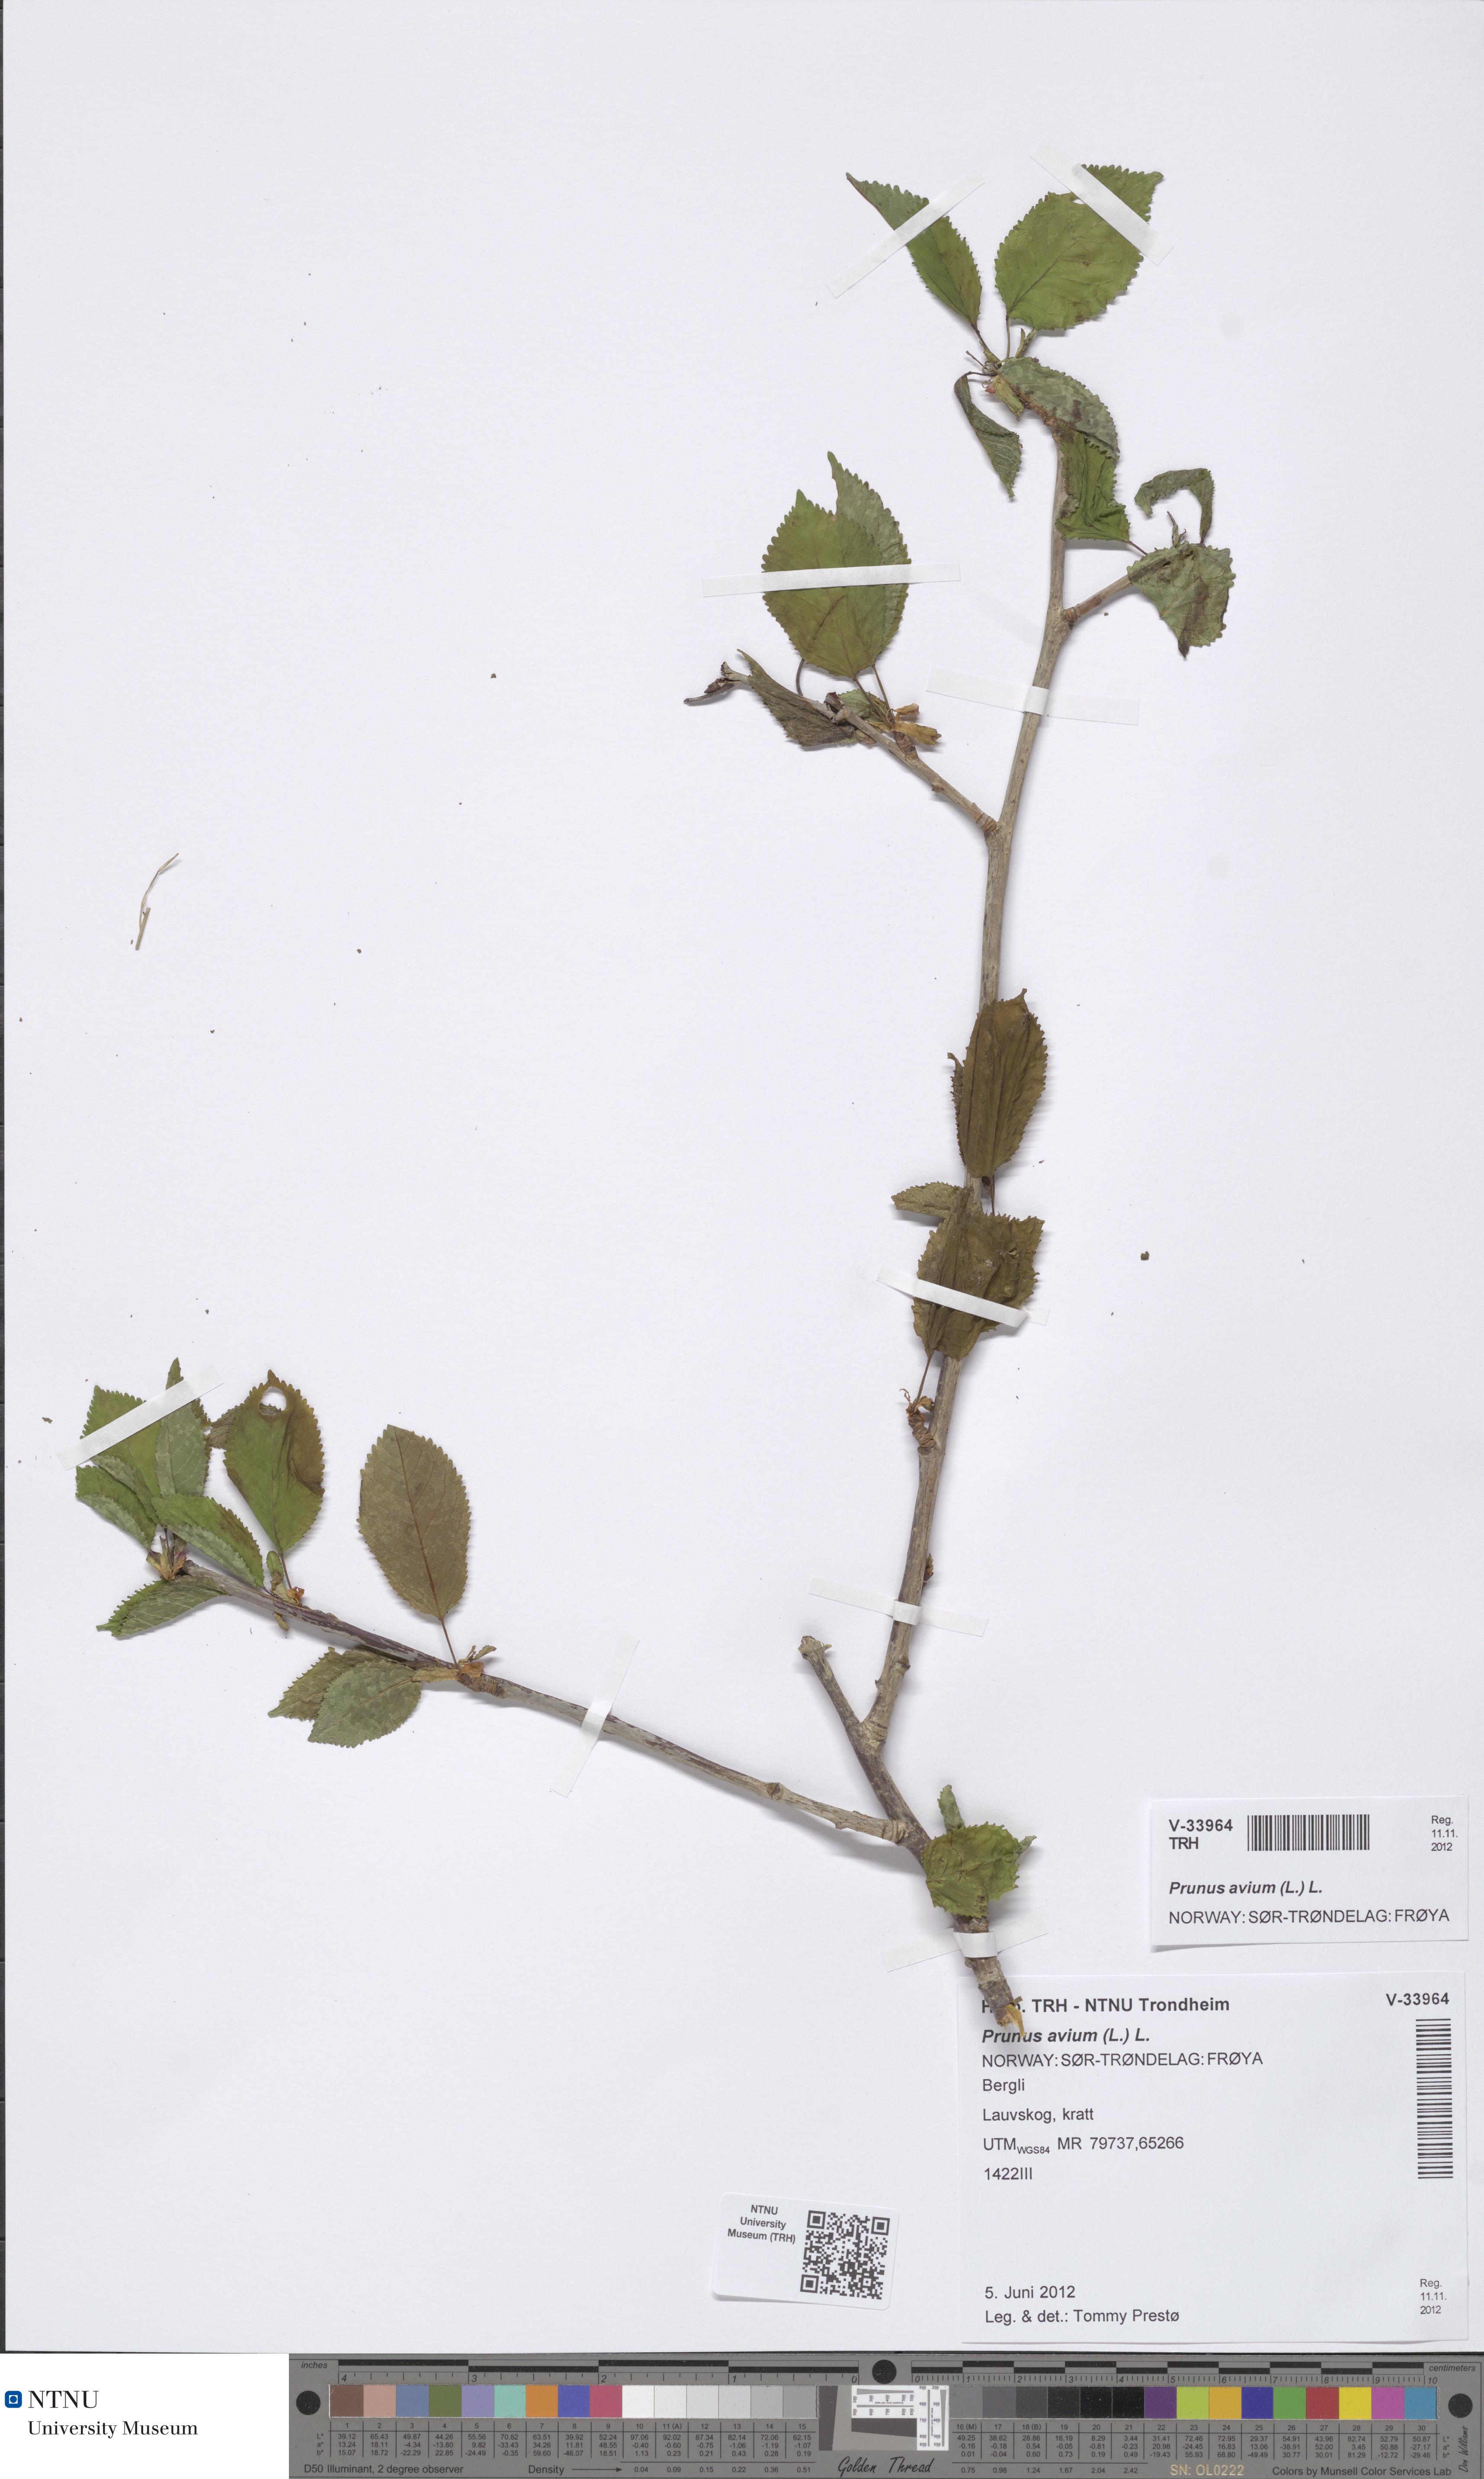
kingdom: Plantae
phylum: Tracheophyta
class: Magnoliopsida
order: Rosales
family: Rosaceae
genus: Prunus
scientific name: Prunus avium
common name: Sweet cherry
